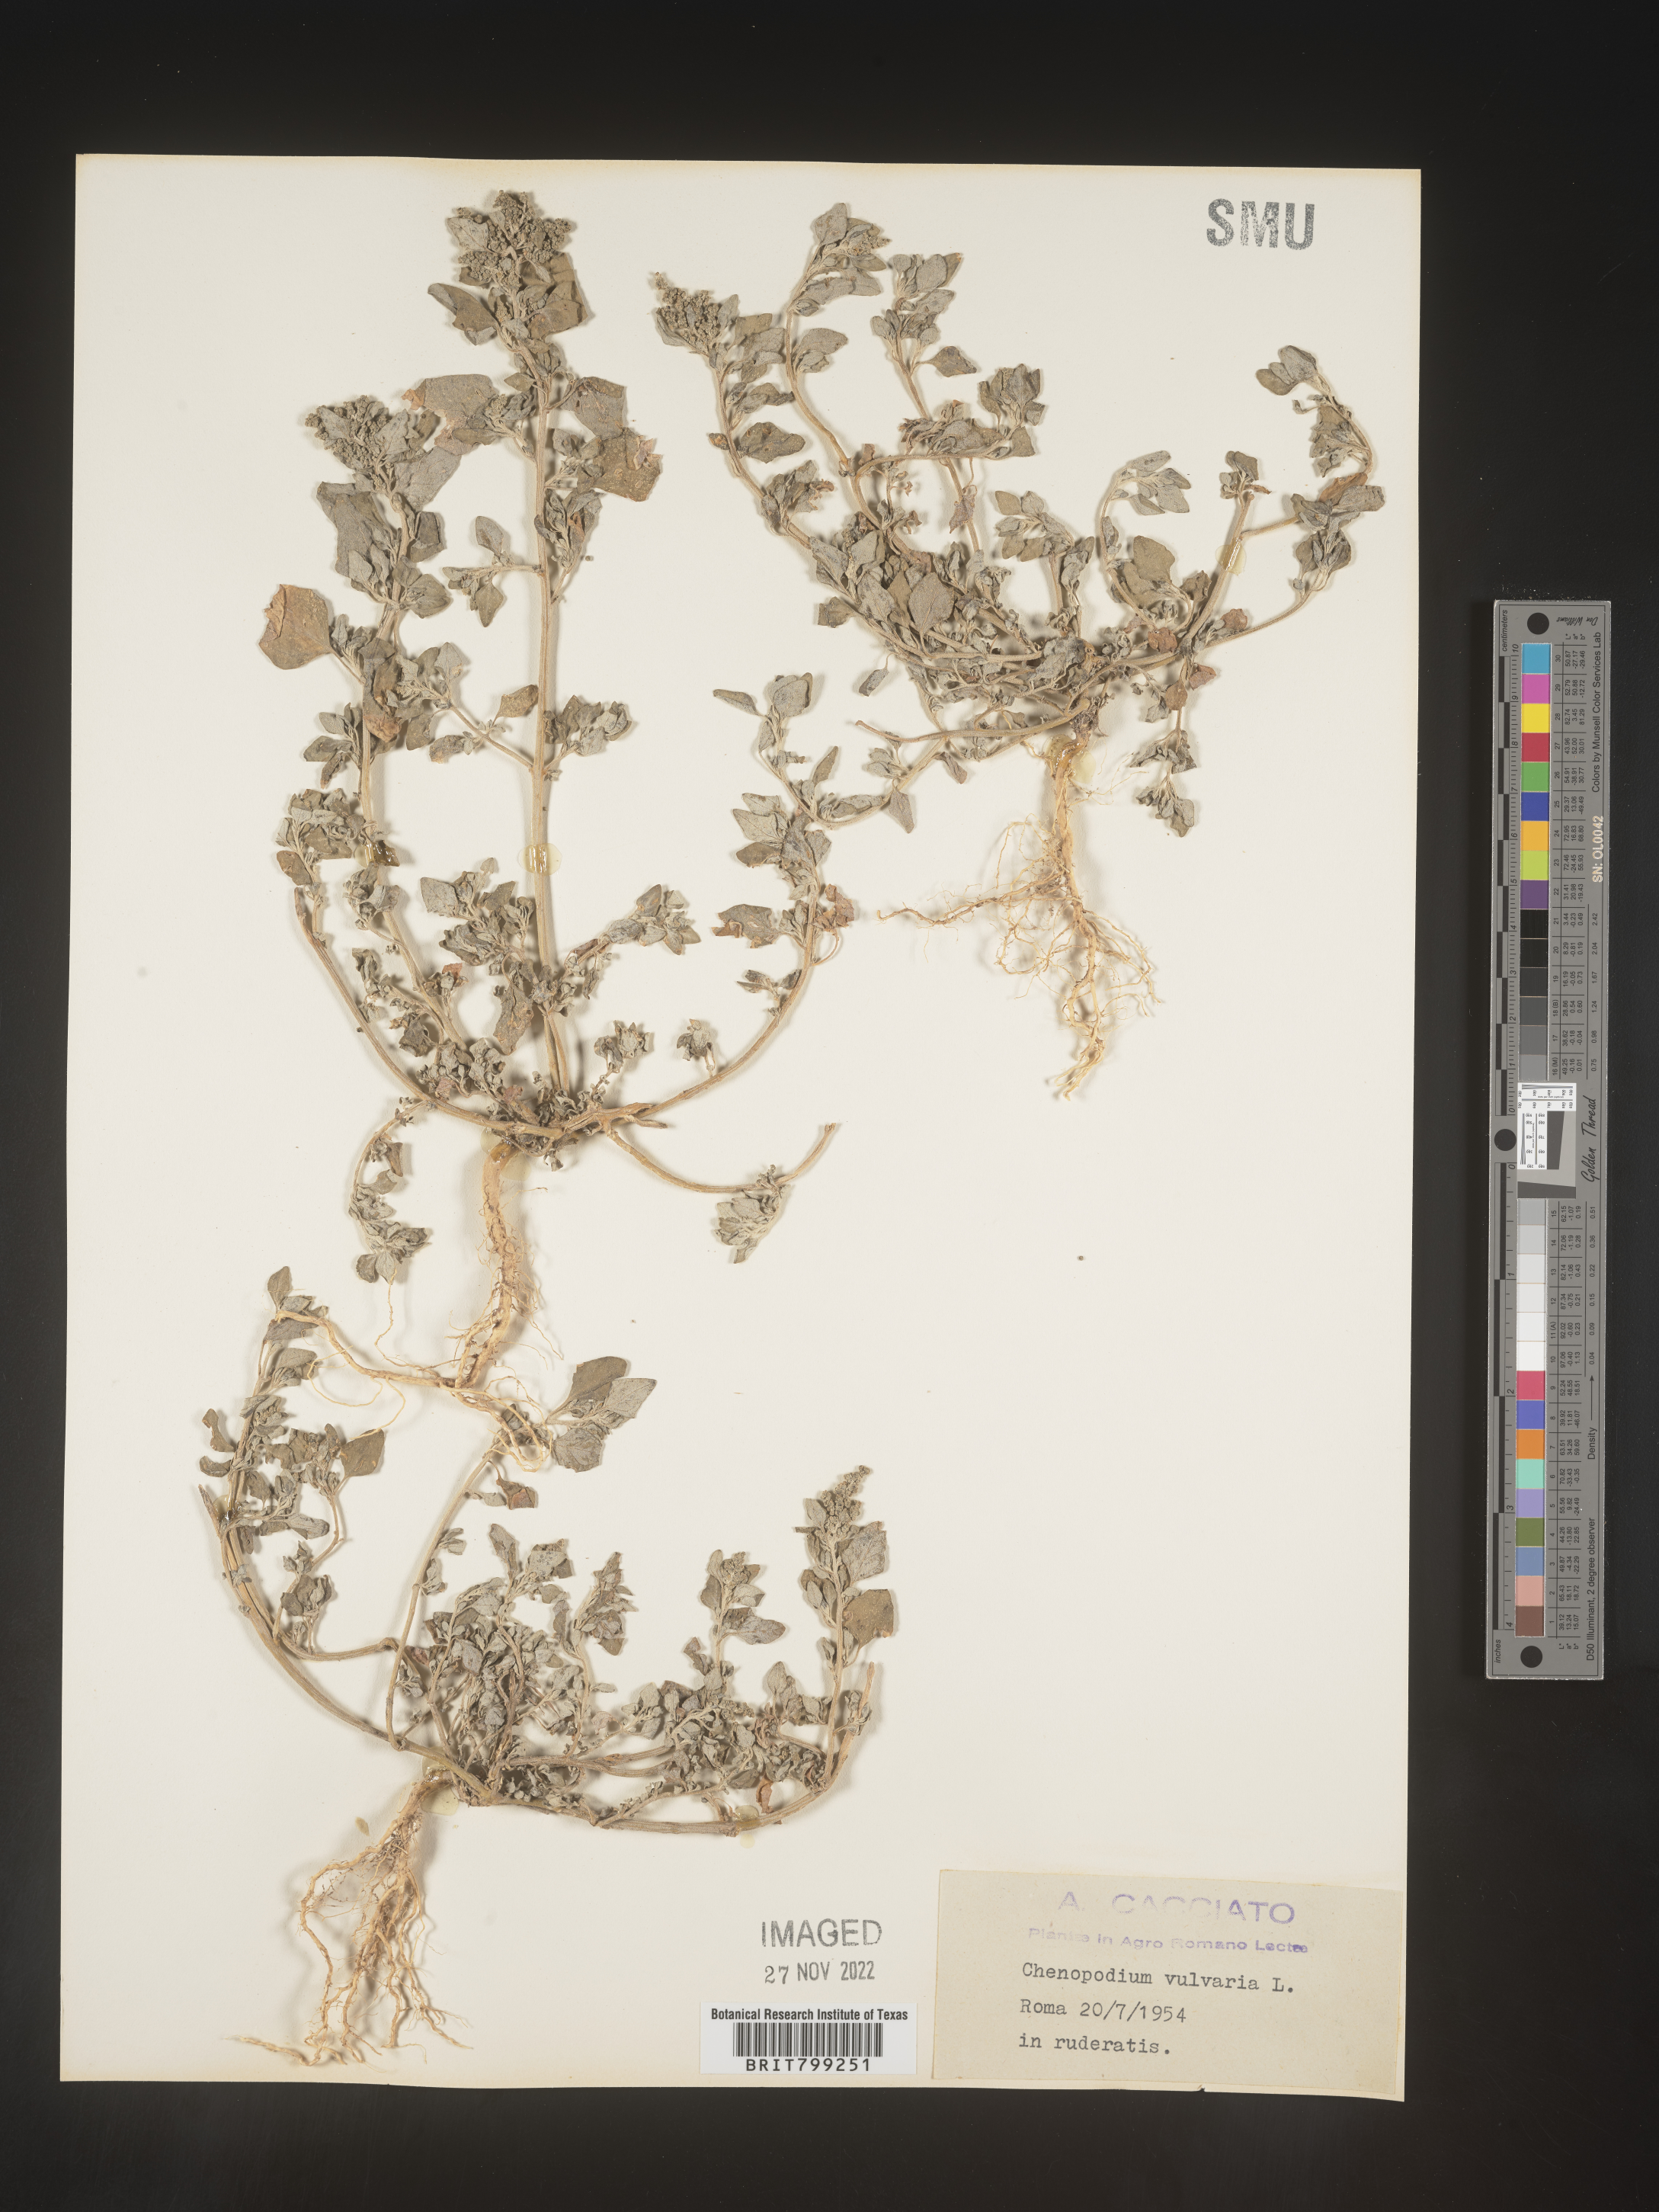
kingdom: Plantae
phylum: Tracheophyta
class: Magnoliopsida
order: Caryophyllales
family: Amaranthaceae
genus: Chenopodium
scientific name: Chenopodium
